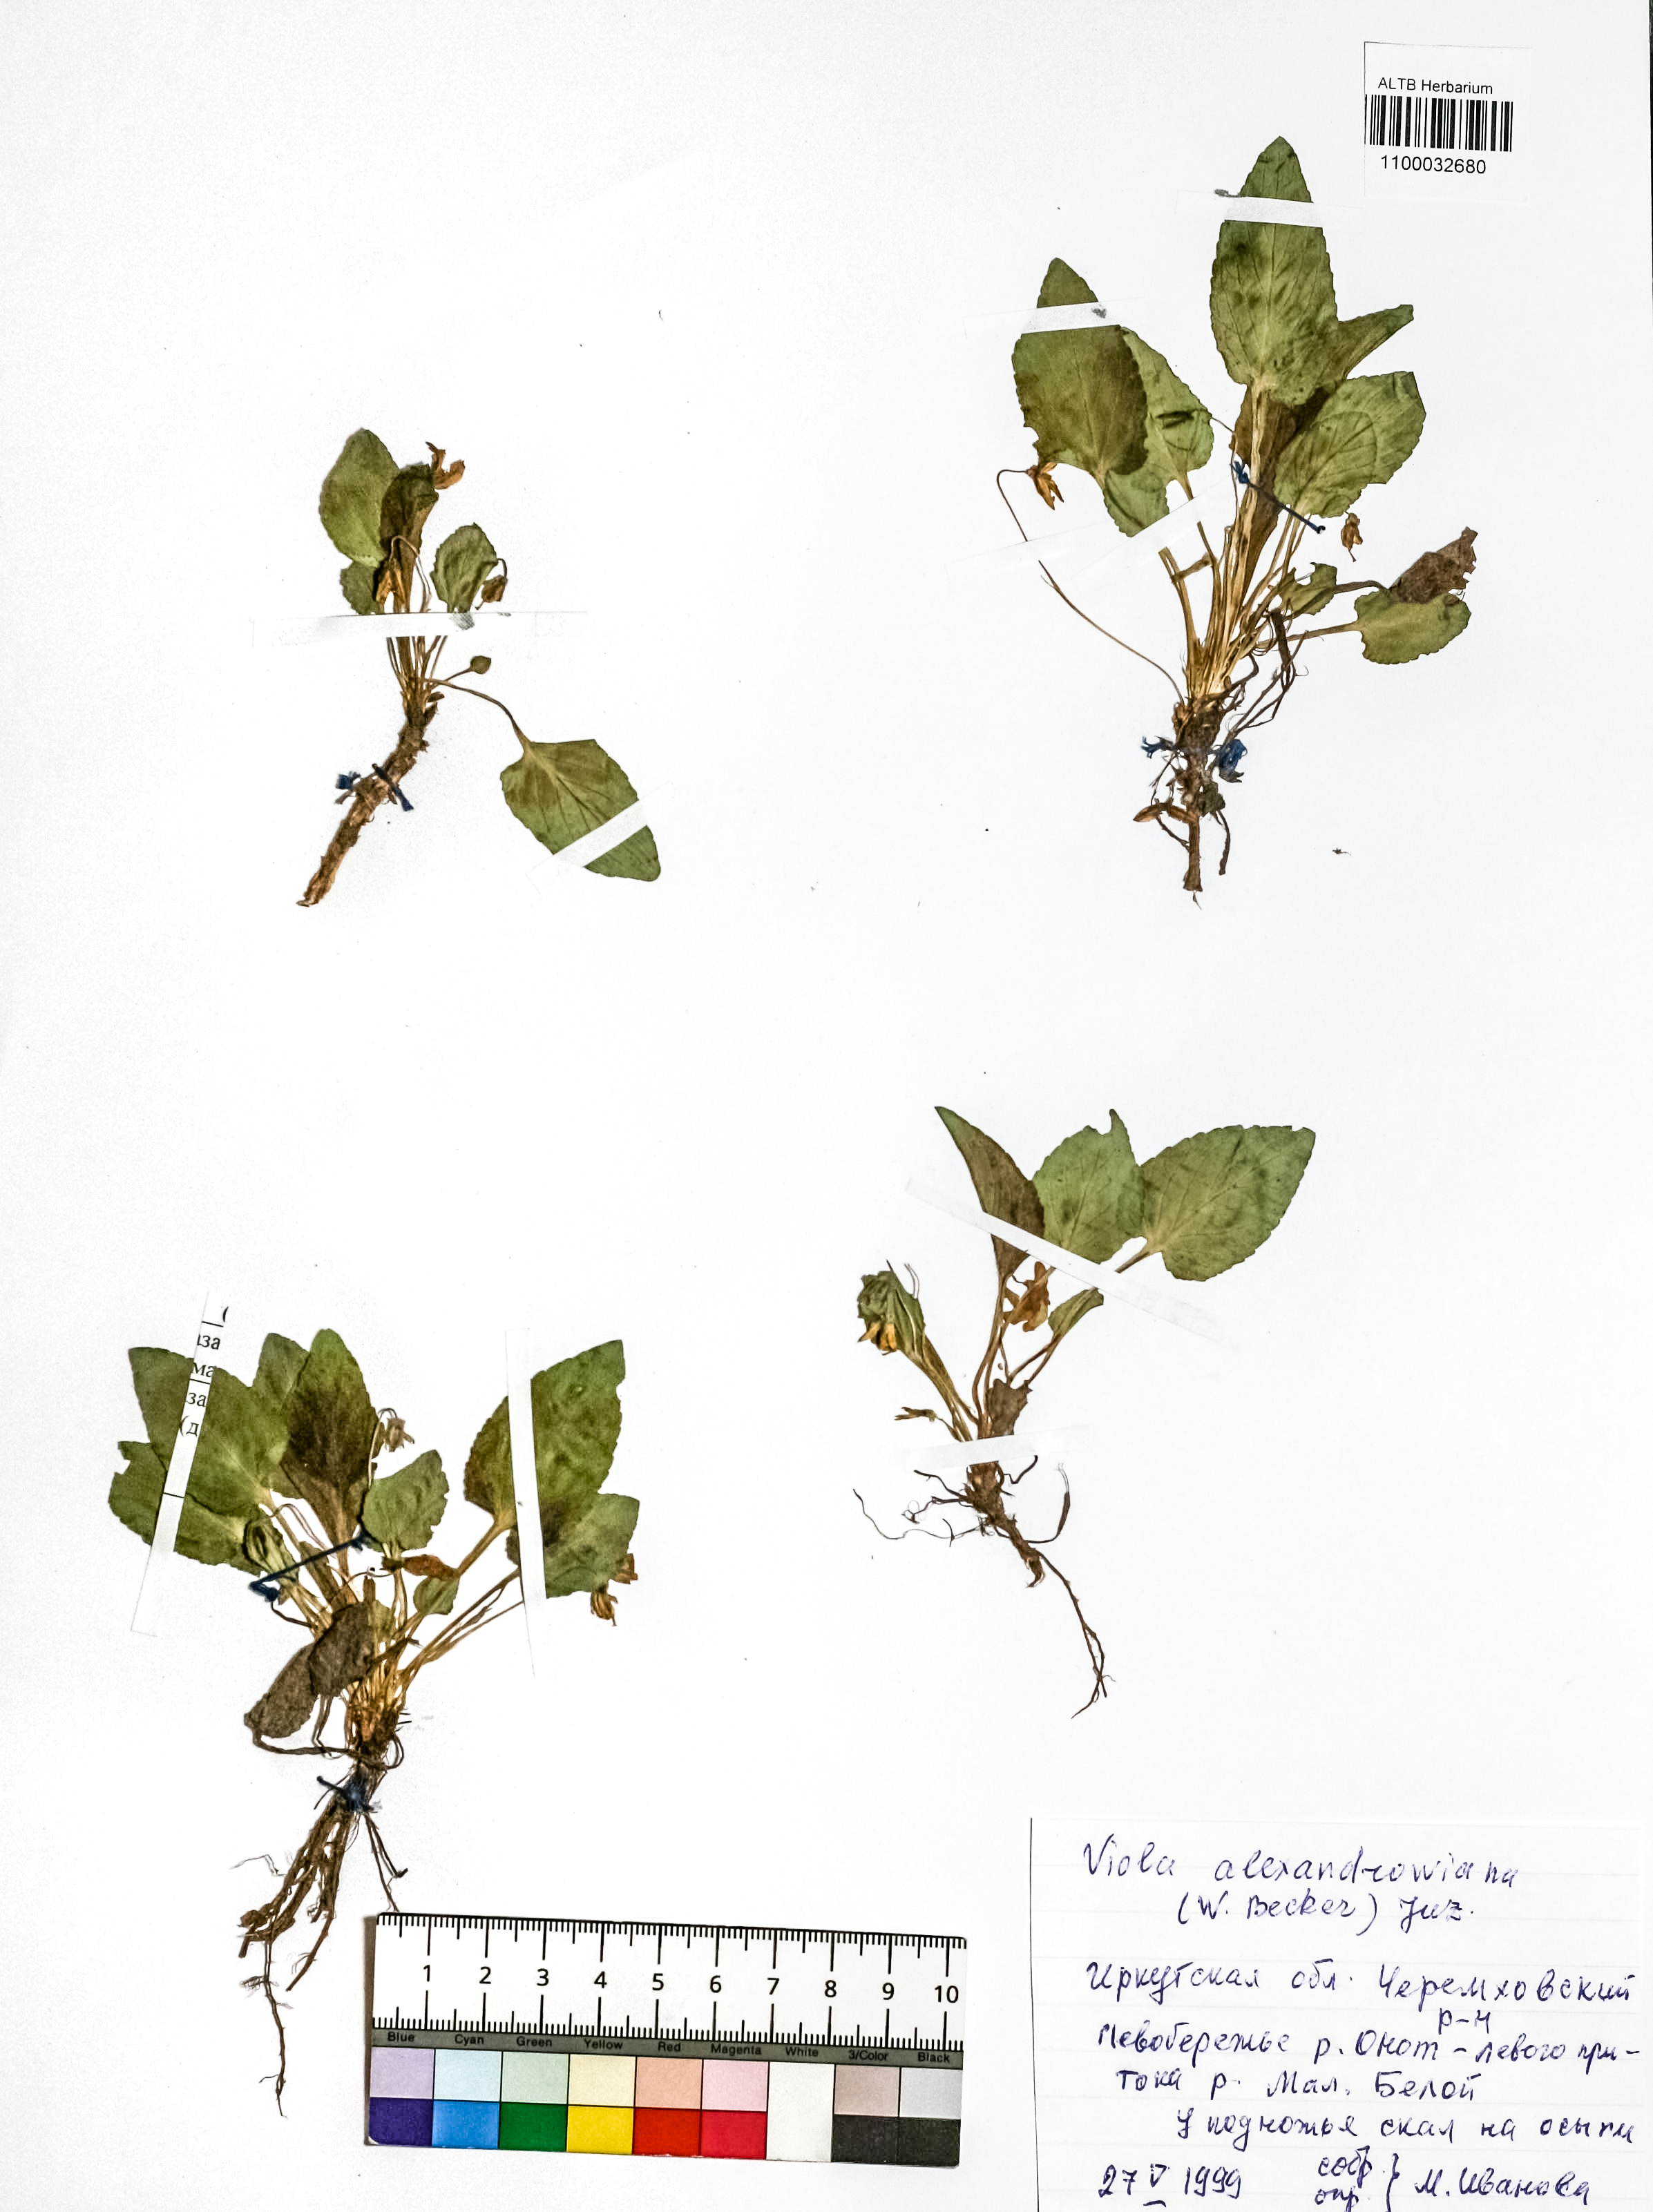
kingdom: Plantae
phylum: Tracheophyta
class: Magnoliopsida
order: Malpighiales
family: Violaceae
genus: Viola
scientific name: Viola alexandrowiana
